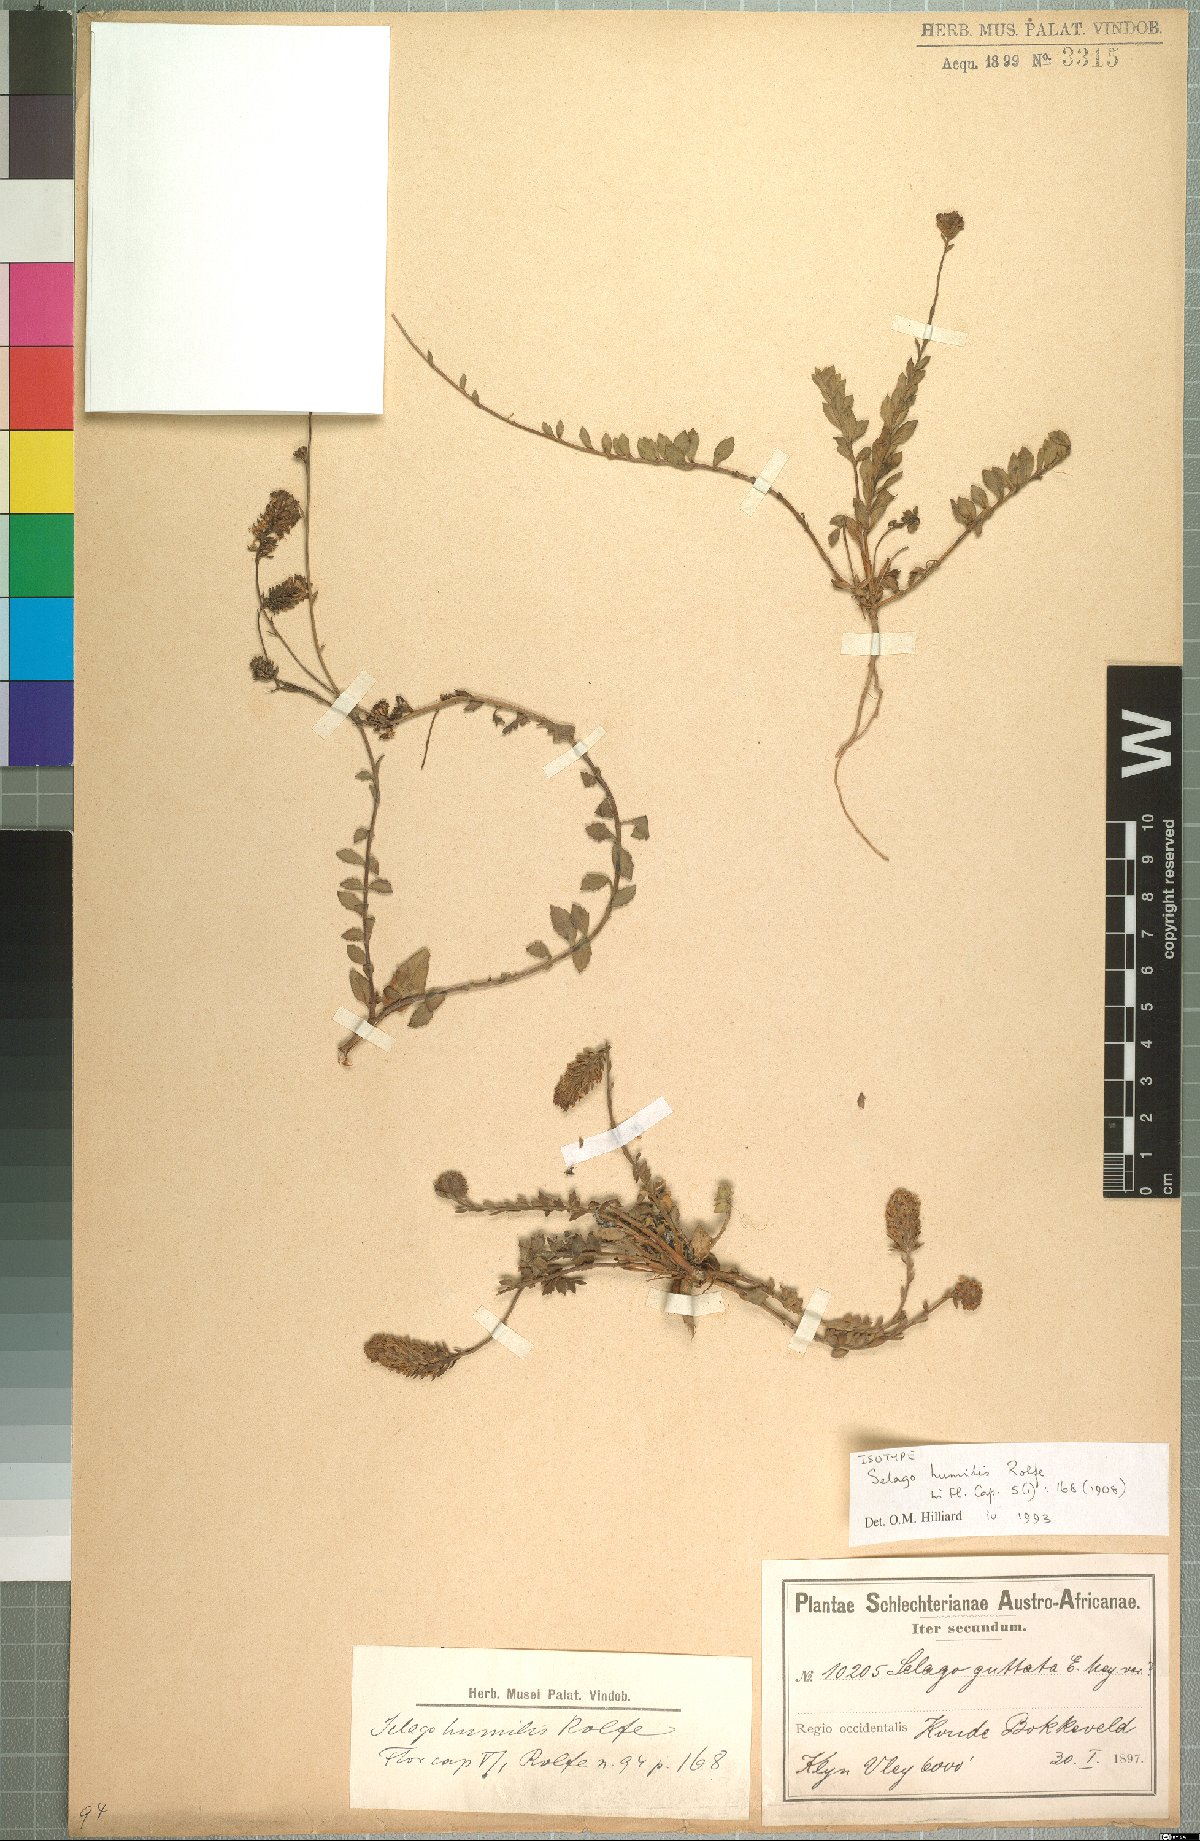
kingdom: Plantae
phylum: Tracheophyta
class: Magnoliopsida
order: Lamiales
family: Scrophulariaceae
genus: Pseudoselago
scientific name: Pseudoselago humilis
